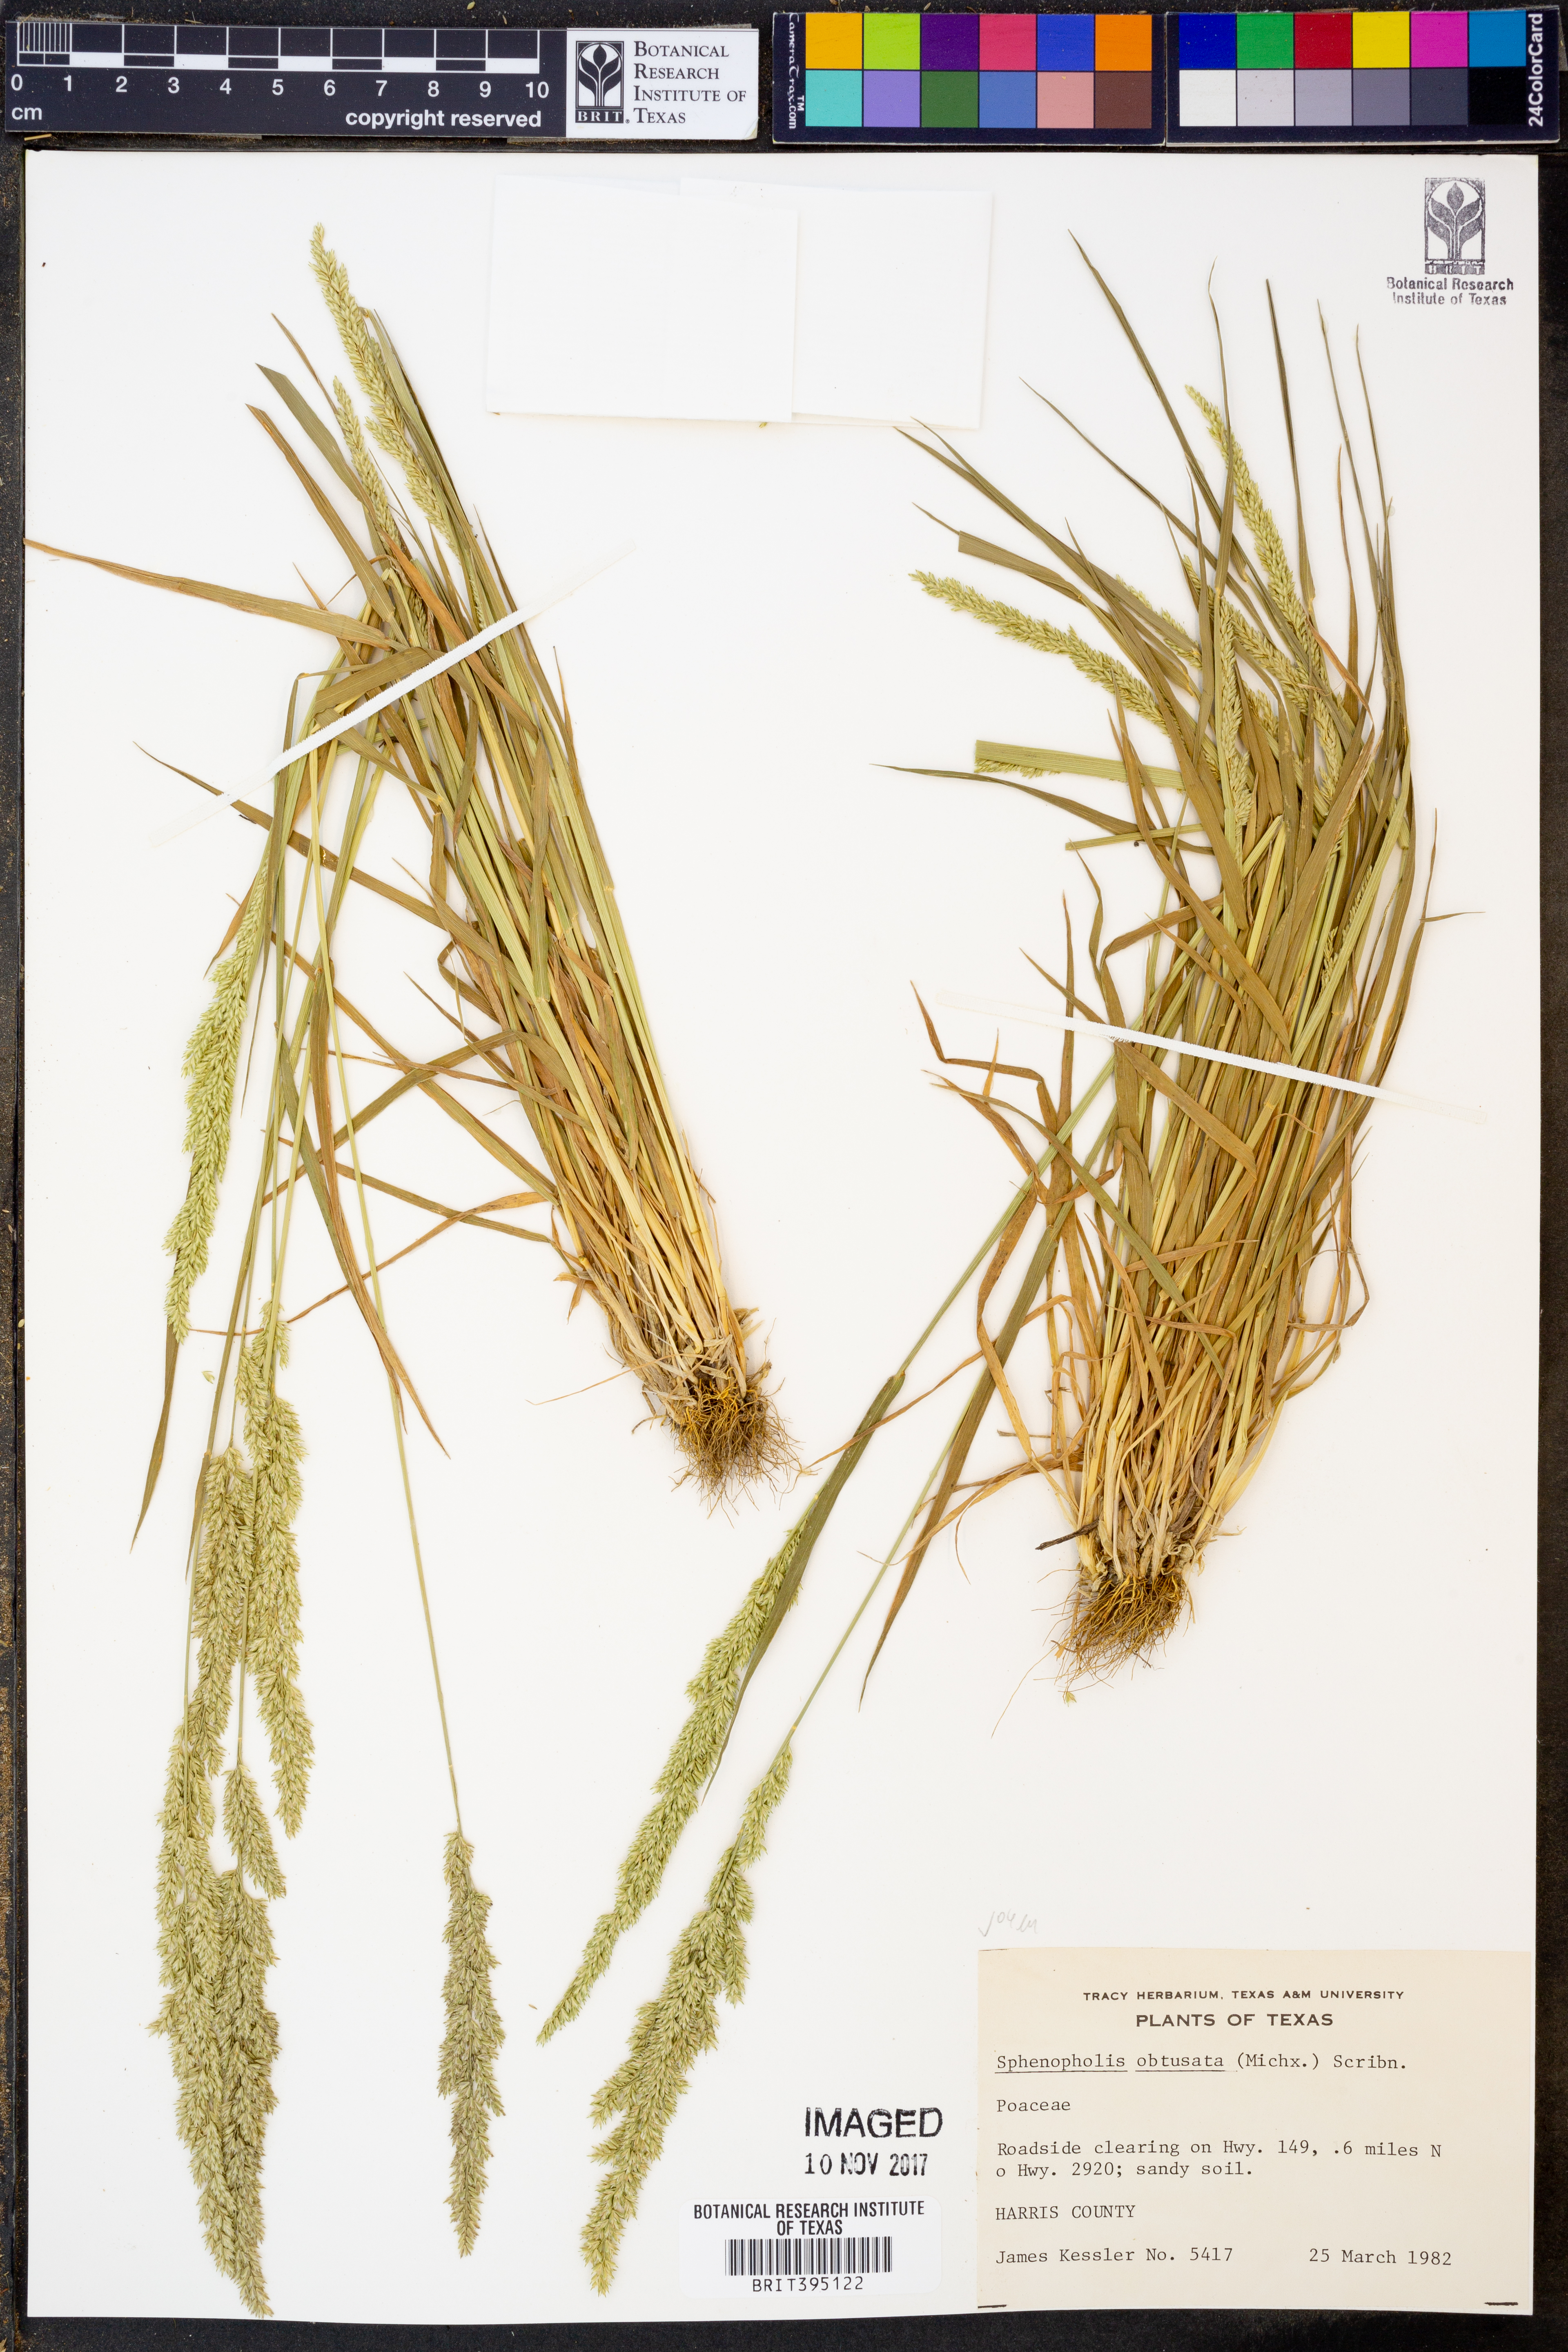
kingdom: Plantae
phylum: Tracheophyta
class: Liliopsida
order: Poales
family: Poaceae
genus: Sphenopholis
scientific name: Sphenopholis obtusata
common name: Prairie grass
